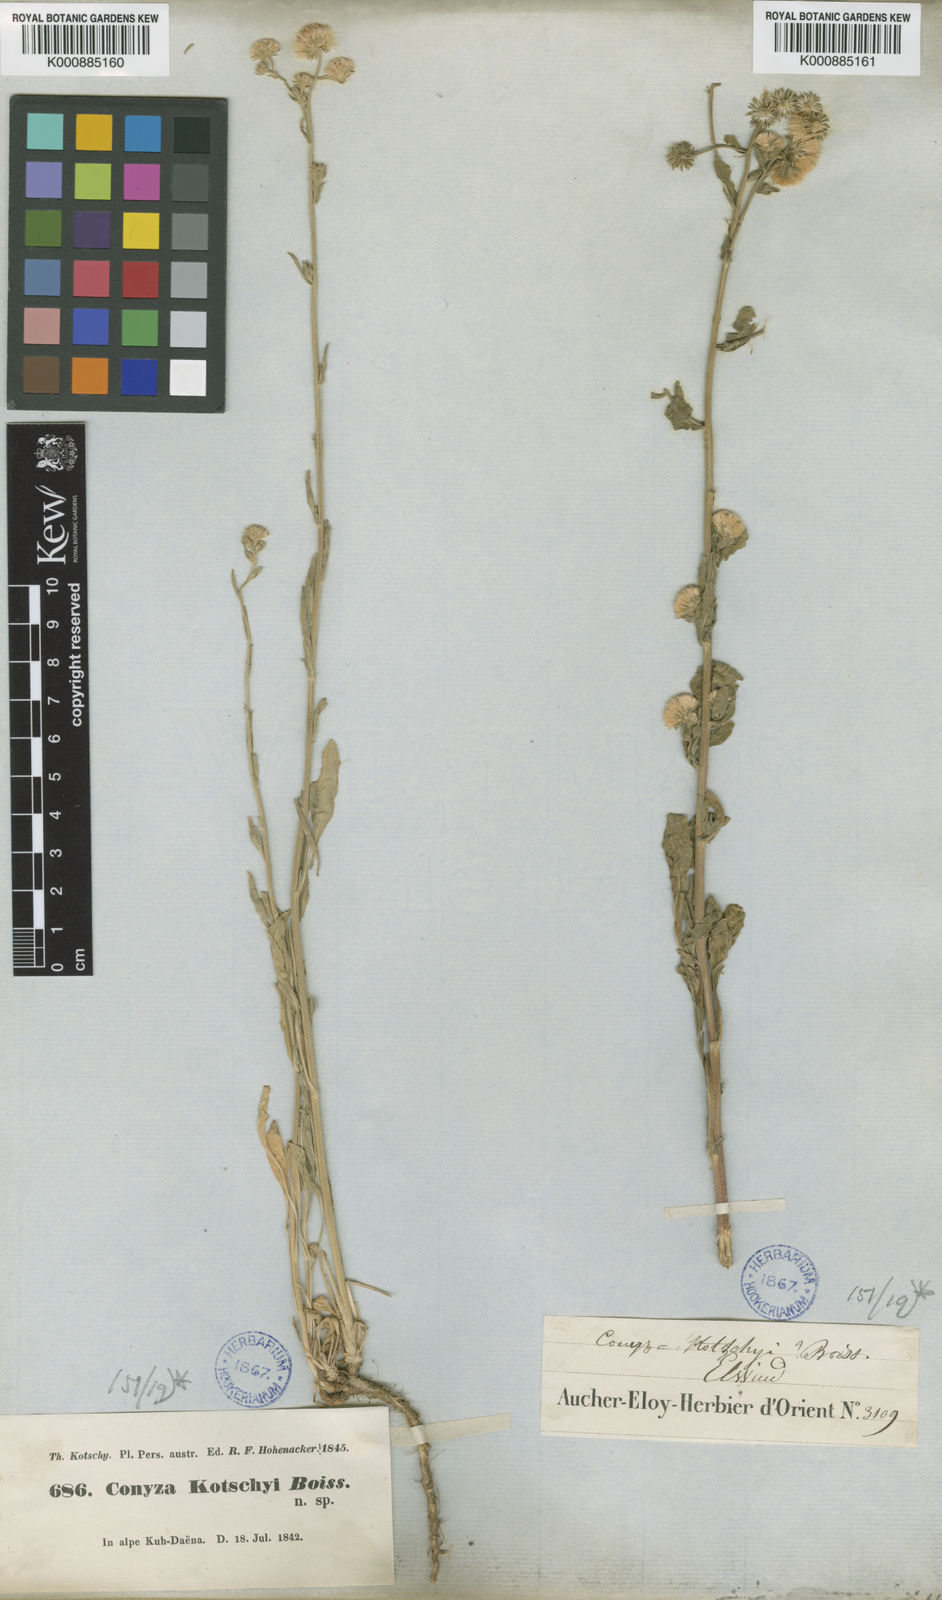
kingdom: Plantae
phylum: Tracheophyta
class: Magnoliopsida
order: Asterales
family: Asteraceae
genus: Psychrogeton
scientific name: Psychrogeton nigromontanus
